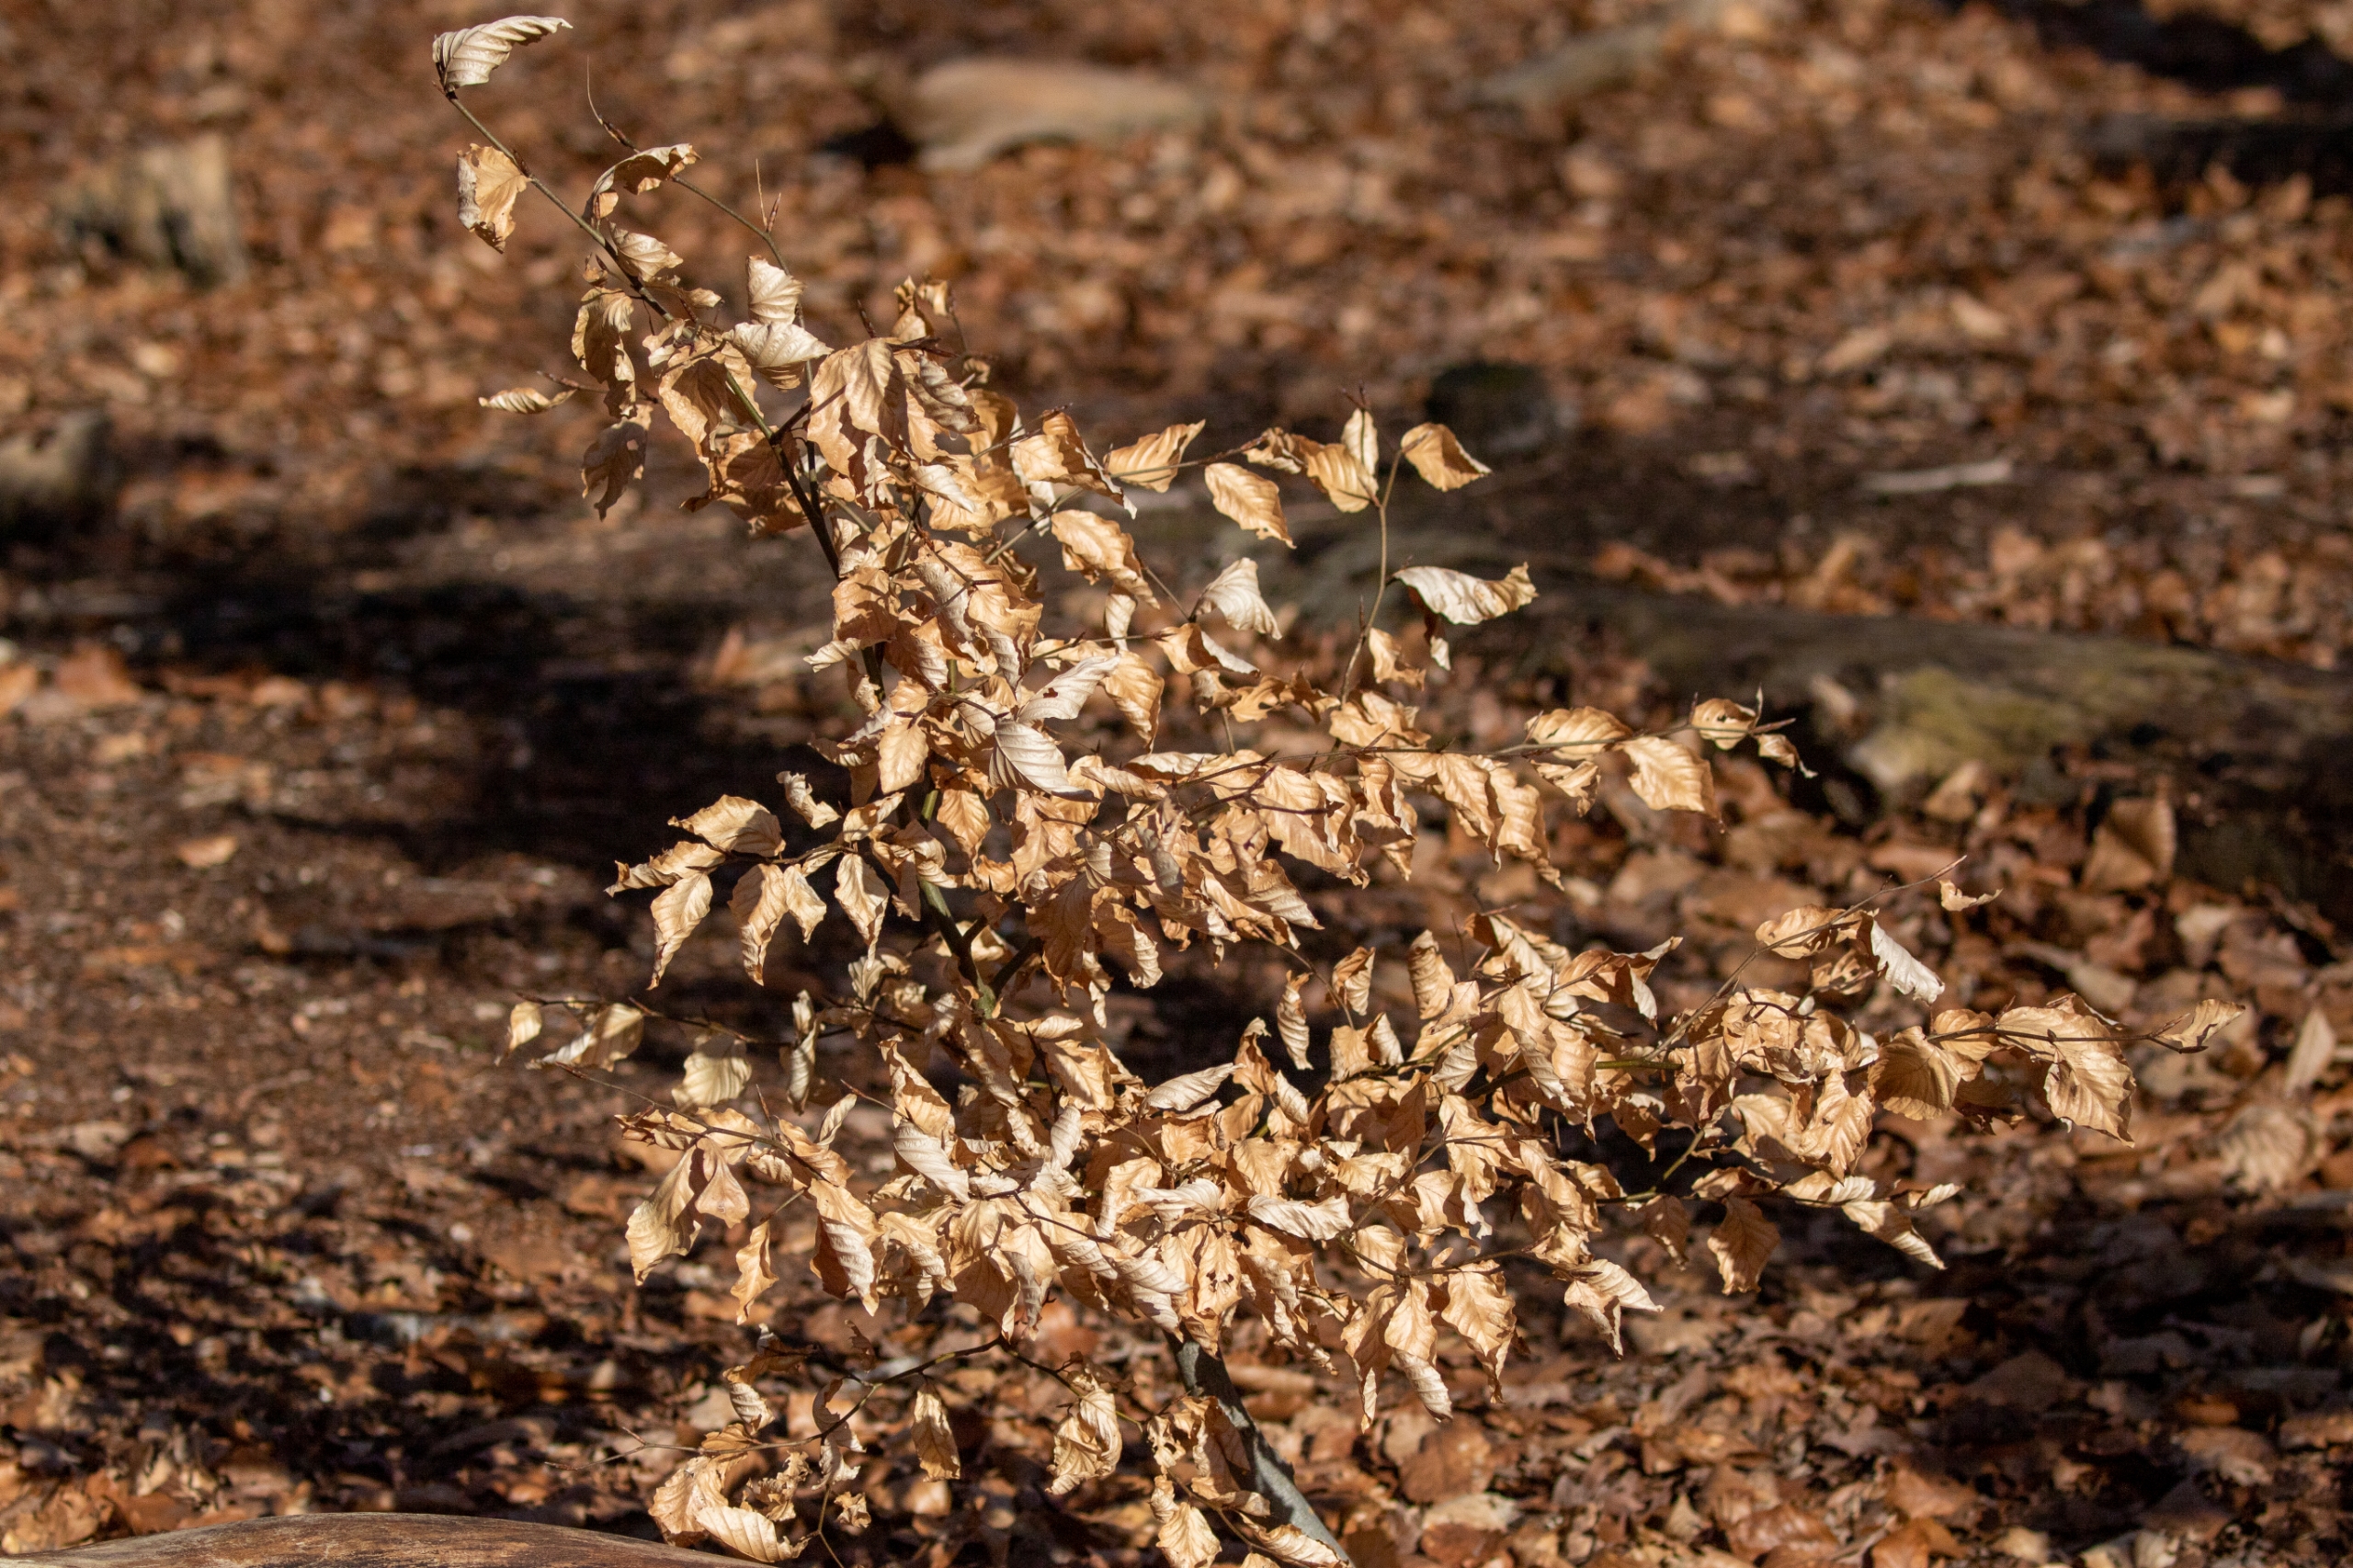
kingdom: Plantae
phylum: Tracheophyta
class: Magnoliopsida
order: Fagales
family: Fagaceae
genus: Fagus
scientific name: Fagus sylvatica
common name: Bøg
